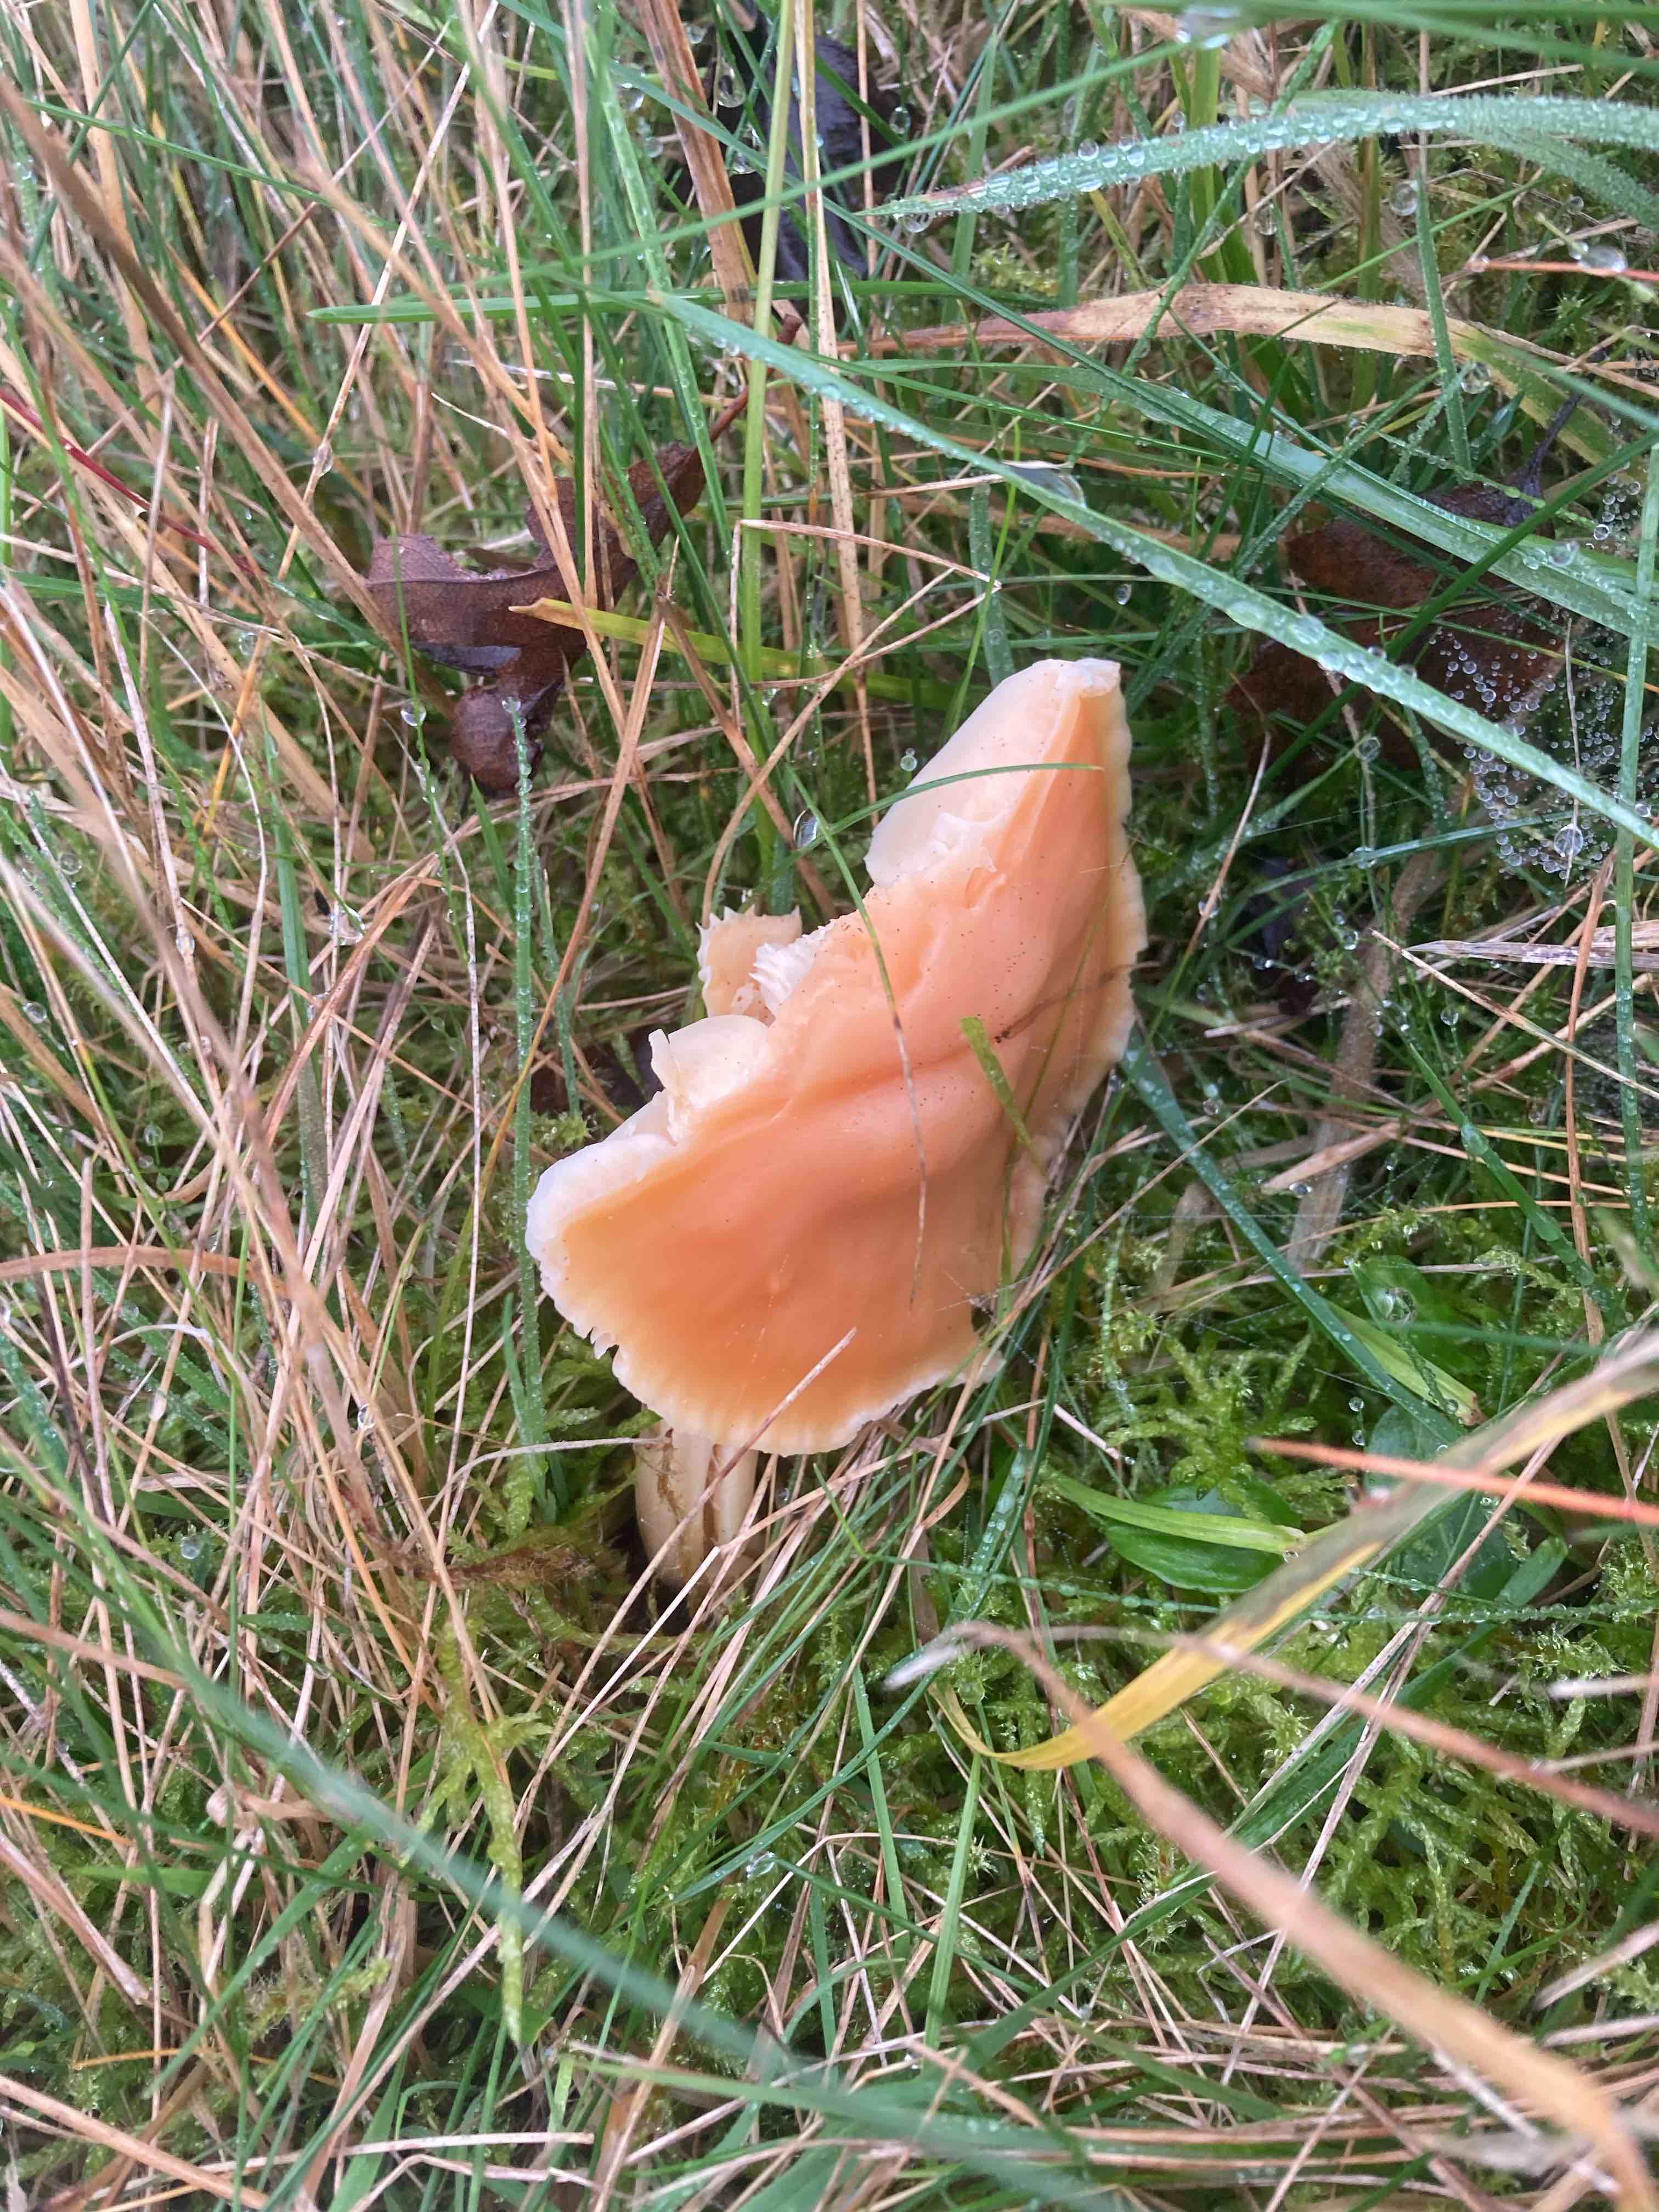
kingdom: Fungi
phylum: Basidiomycota
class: Agaricomycetes
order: Agaricales
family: Hygrophoraceae
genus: Cuphophyllus
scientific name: Cuphophyllus pratensis
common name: eng-vokshat
